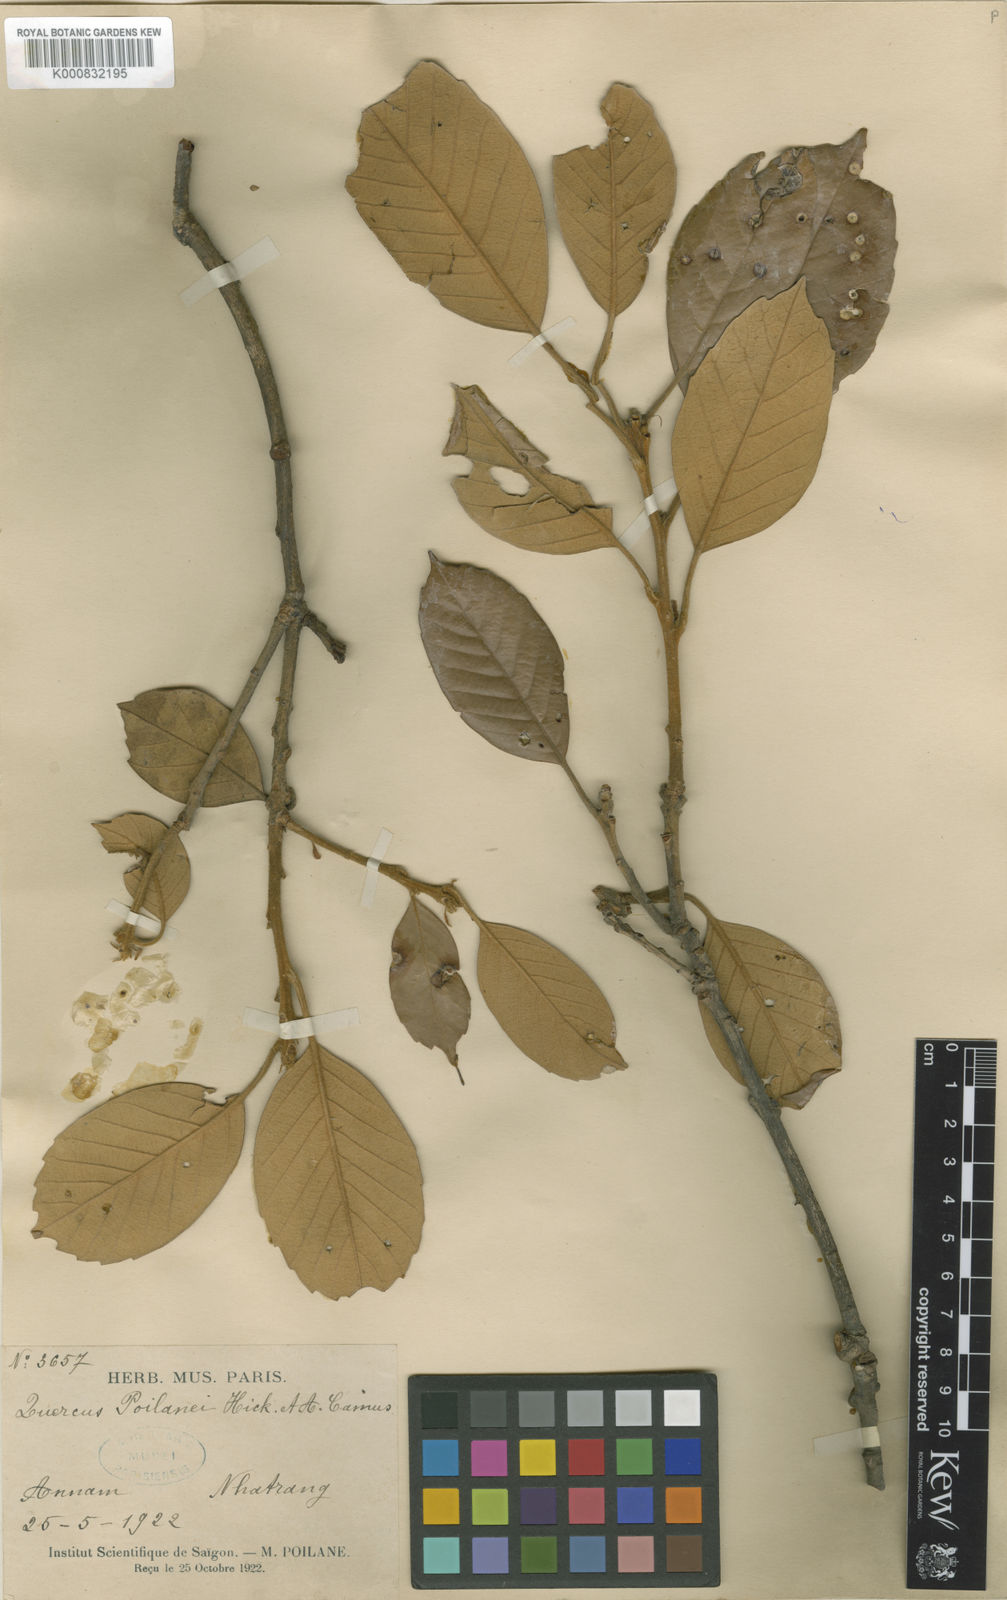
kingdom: Plantae
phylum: Tracheophyta
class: Magnoliopsida
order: Fagales
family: Fagaceae
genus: Quercus
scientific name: Quercus poilanei
